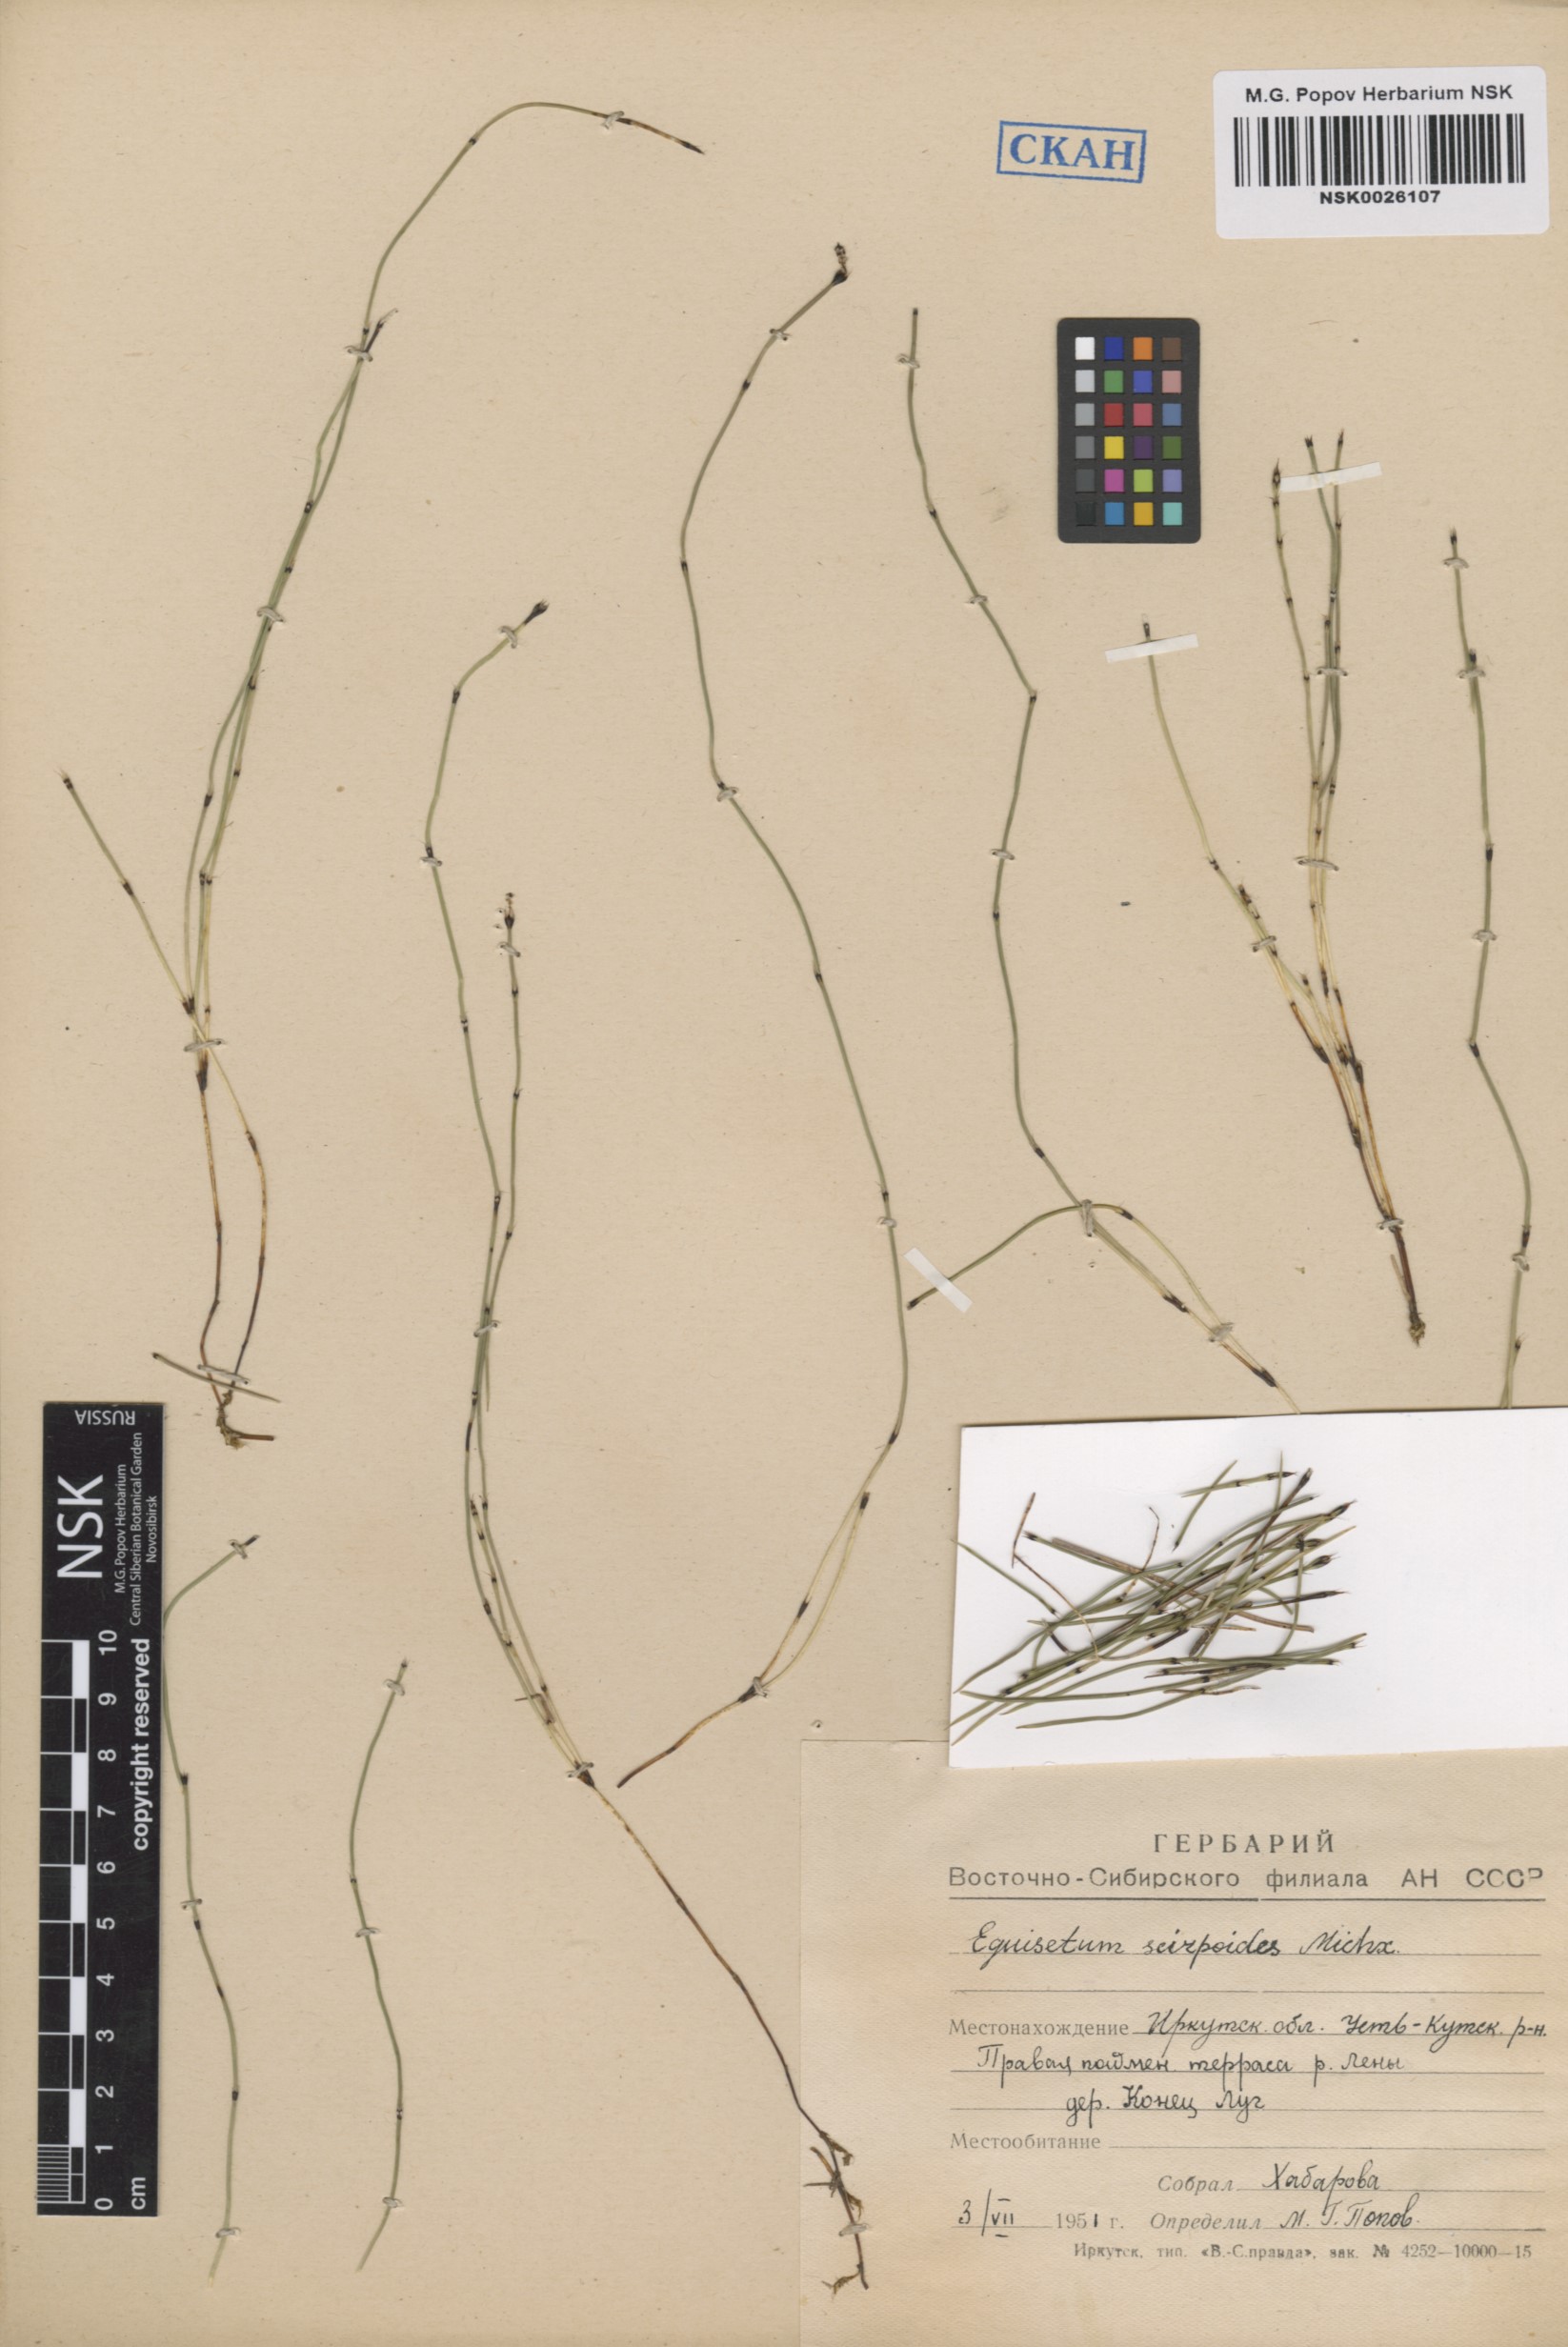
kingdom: Plantae
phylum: Tracheophyta
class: Polypodiopsida
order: Equisetales
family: Equisetaceae
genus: Equisetum
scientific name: Equisetum scirpoides
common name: Delicate horsetail
